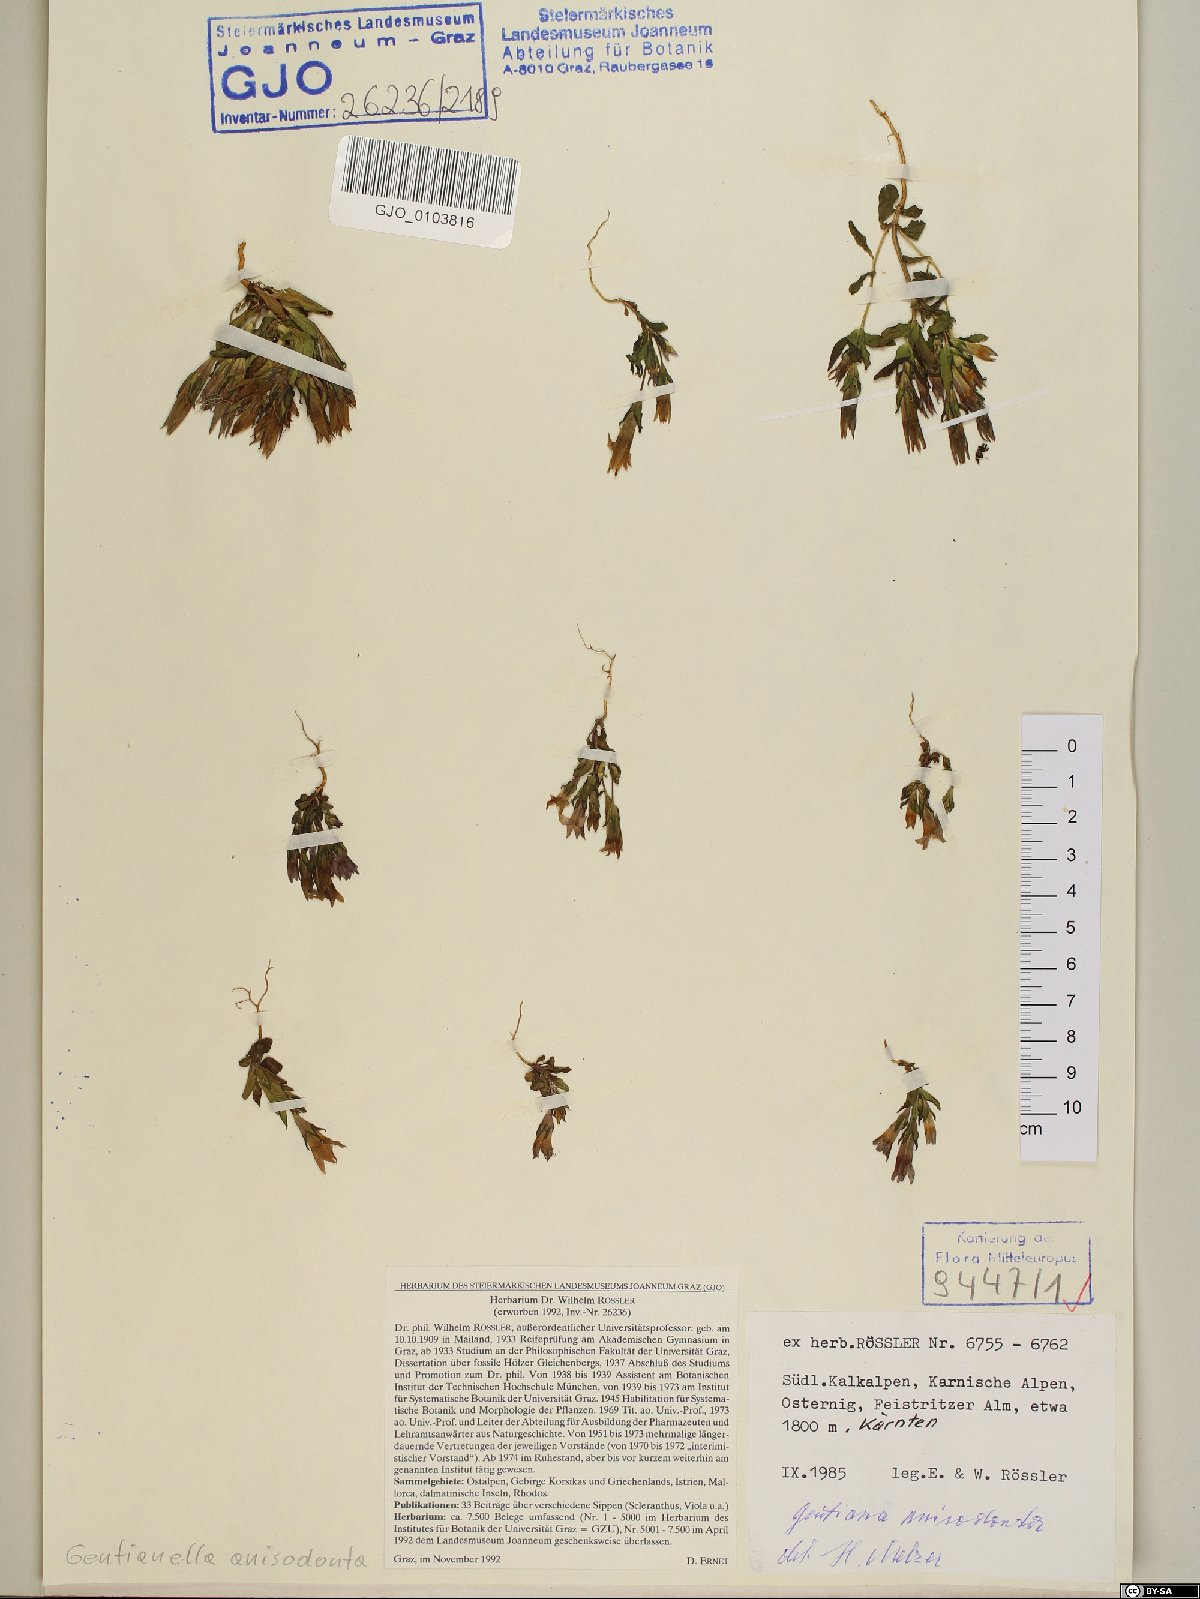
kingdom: Plantae
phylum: Tracheophyta
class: Magnoliopsida
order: Gentianales
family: Gentianaceae
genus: Gentianella
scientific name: Gentianella anisodonta
